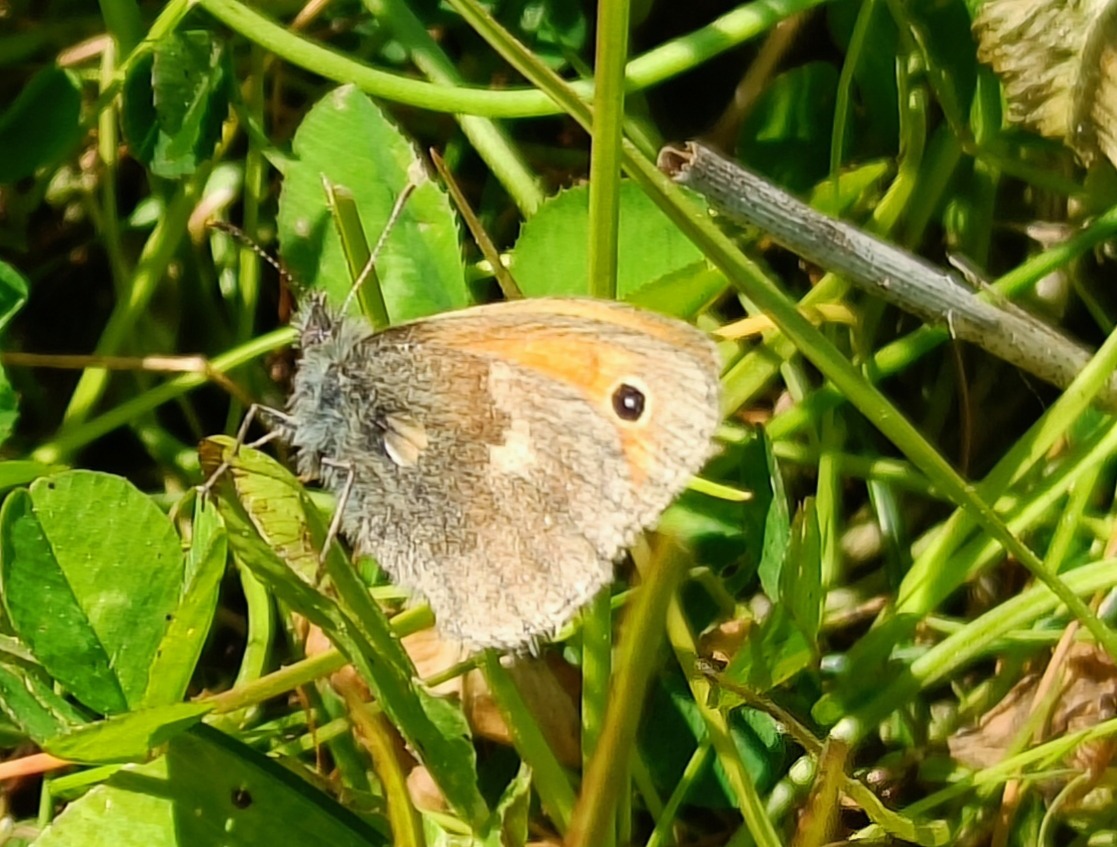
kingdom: Animalia
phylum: Arthropoda
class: Insecta
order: Lepidoptera
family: Nymphalidae
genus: Coenonympha
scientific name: Coenonympha pamphilus
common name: Okkergul randøje
